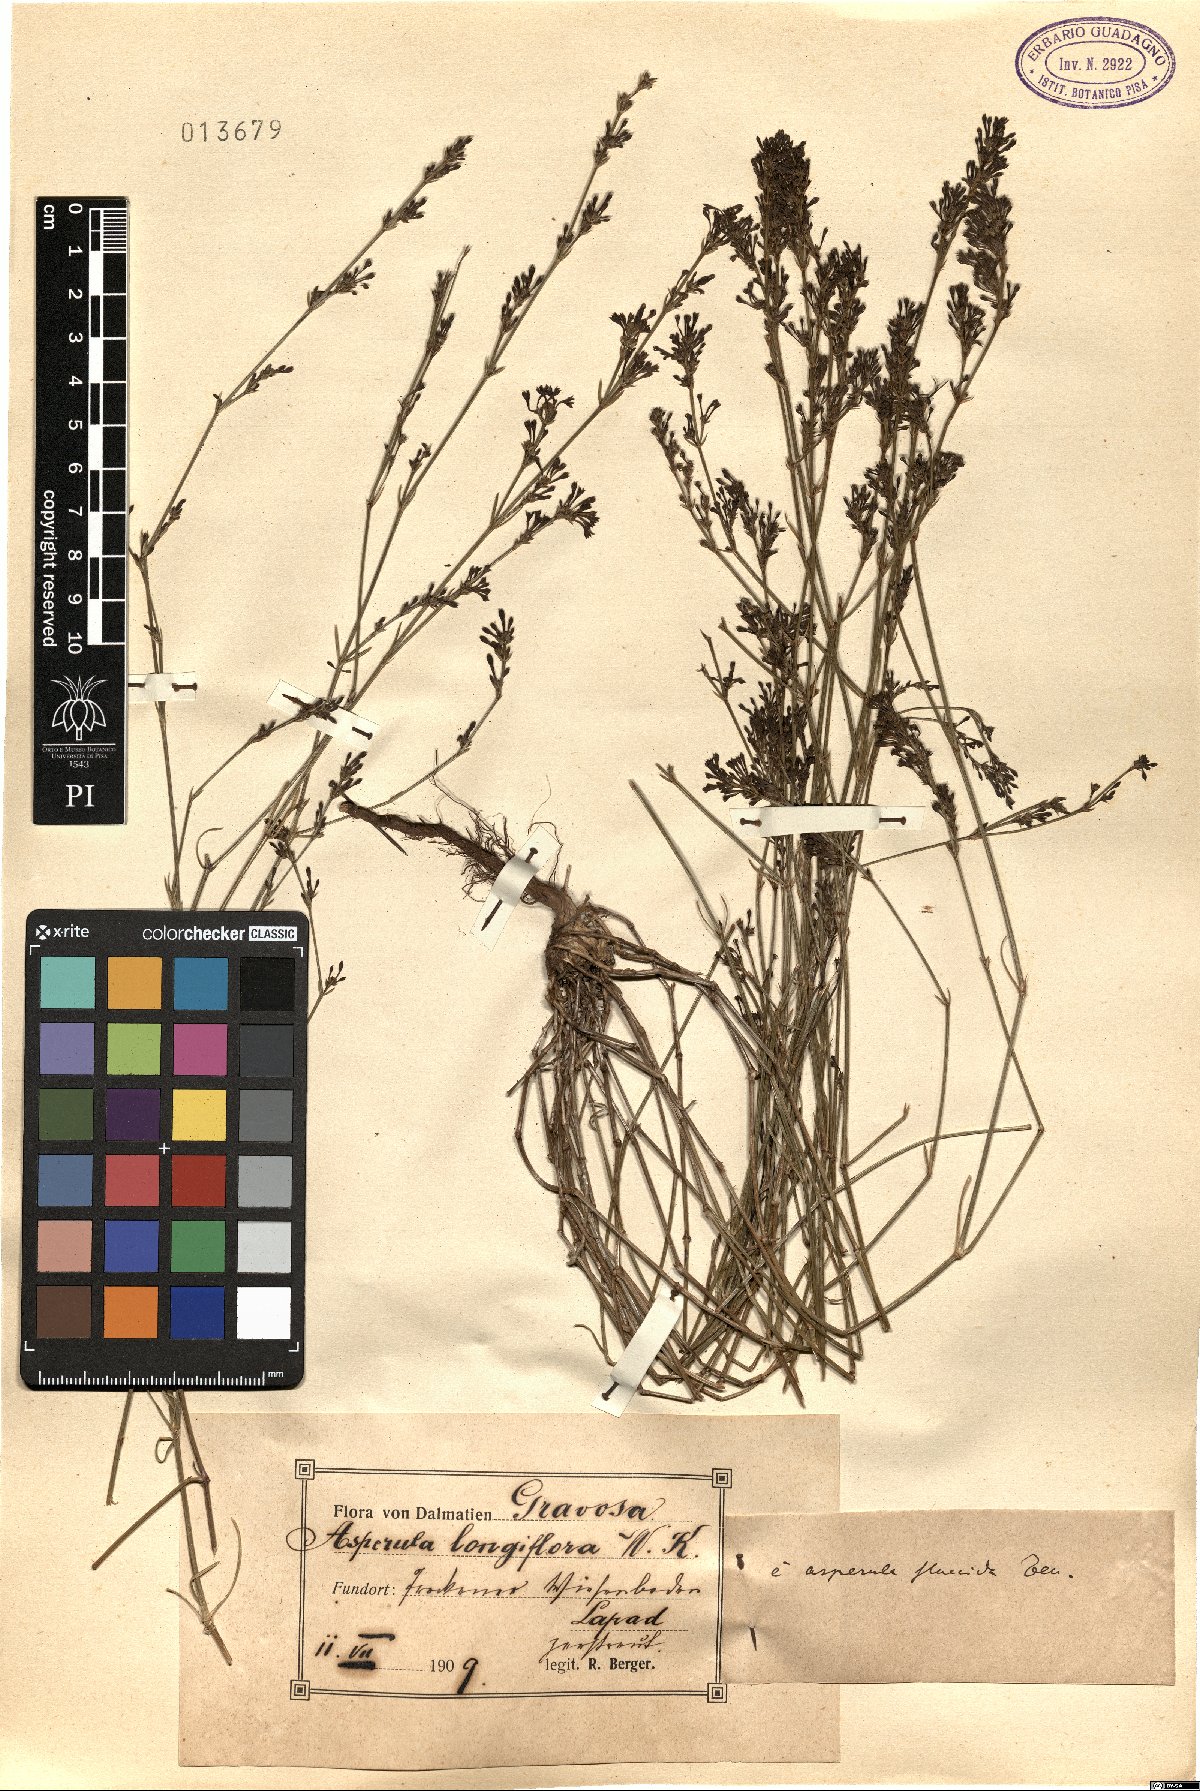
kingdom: Plantae
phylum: Tracheophyta
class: Magnoliopsida
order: Gentianales
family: Rubiaceae
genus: Cynanchica
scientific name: Cynanchica aristata
